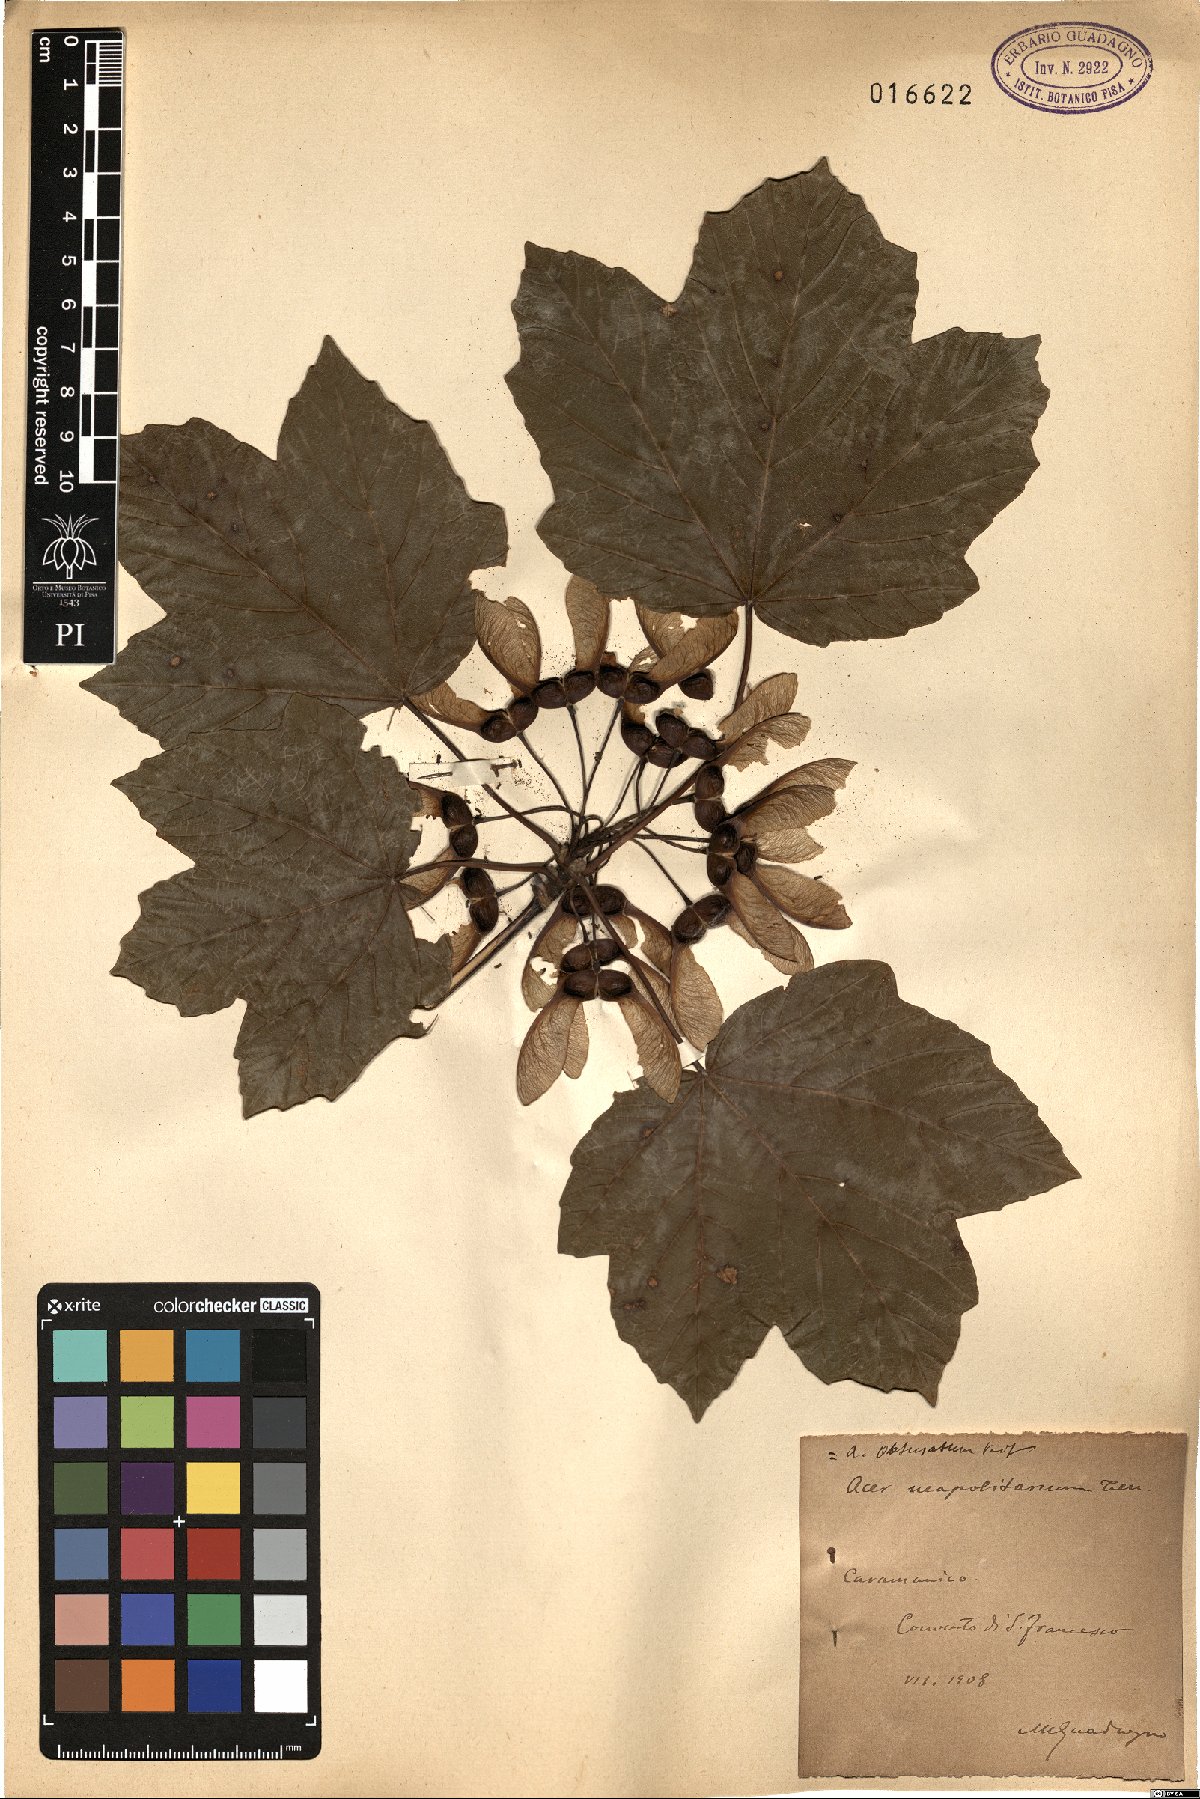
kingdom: Plantae
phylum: Tracheophyta
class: Magnoliopsida
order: Sapindales
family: Sapindaceae
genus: Acer
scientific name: Acer obtusatum
